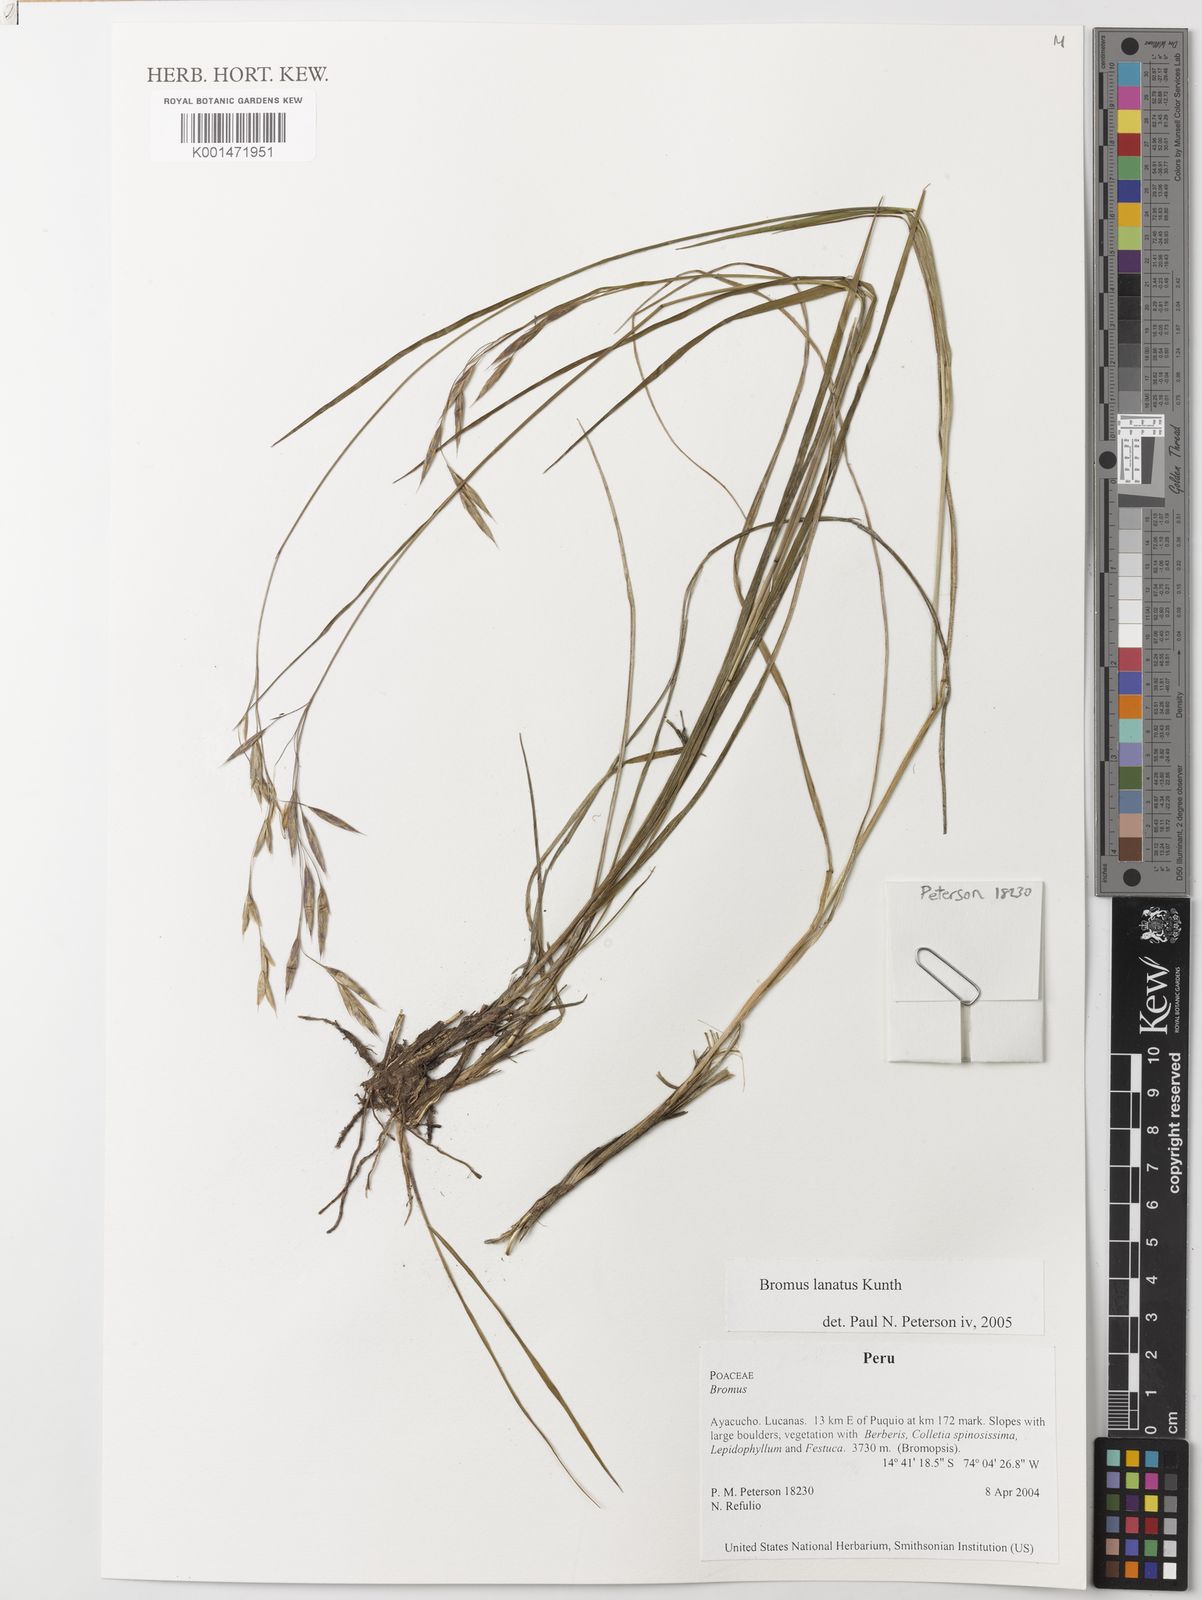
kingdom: Plantae
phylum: Tracheophyta
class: Liliopsida
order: Poales
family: Poaceae
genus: Bromus
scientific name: Bromus lanatus
